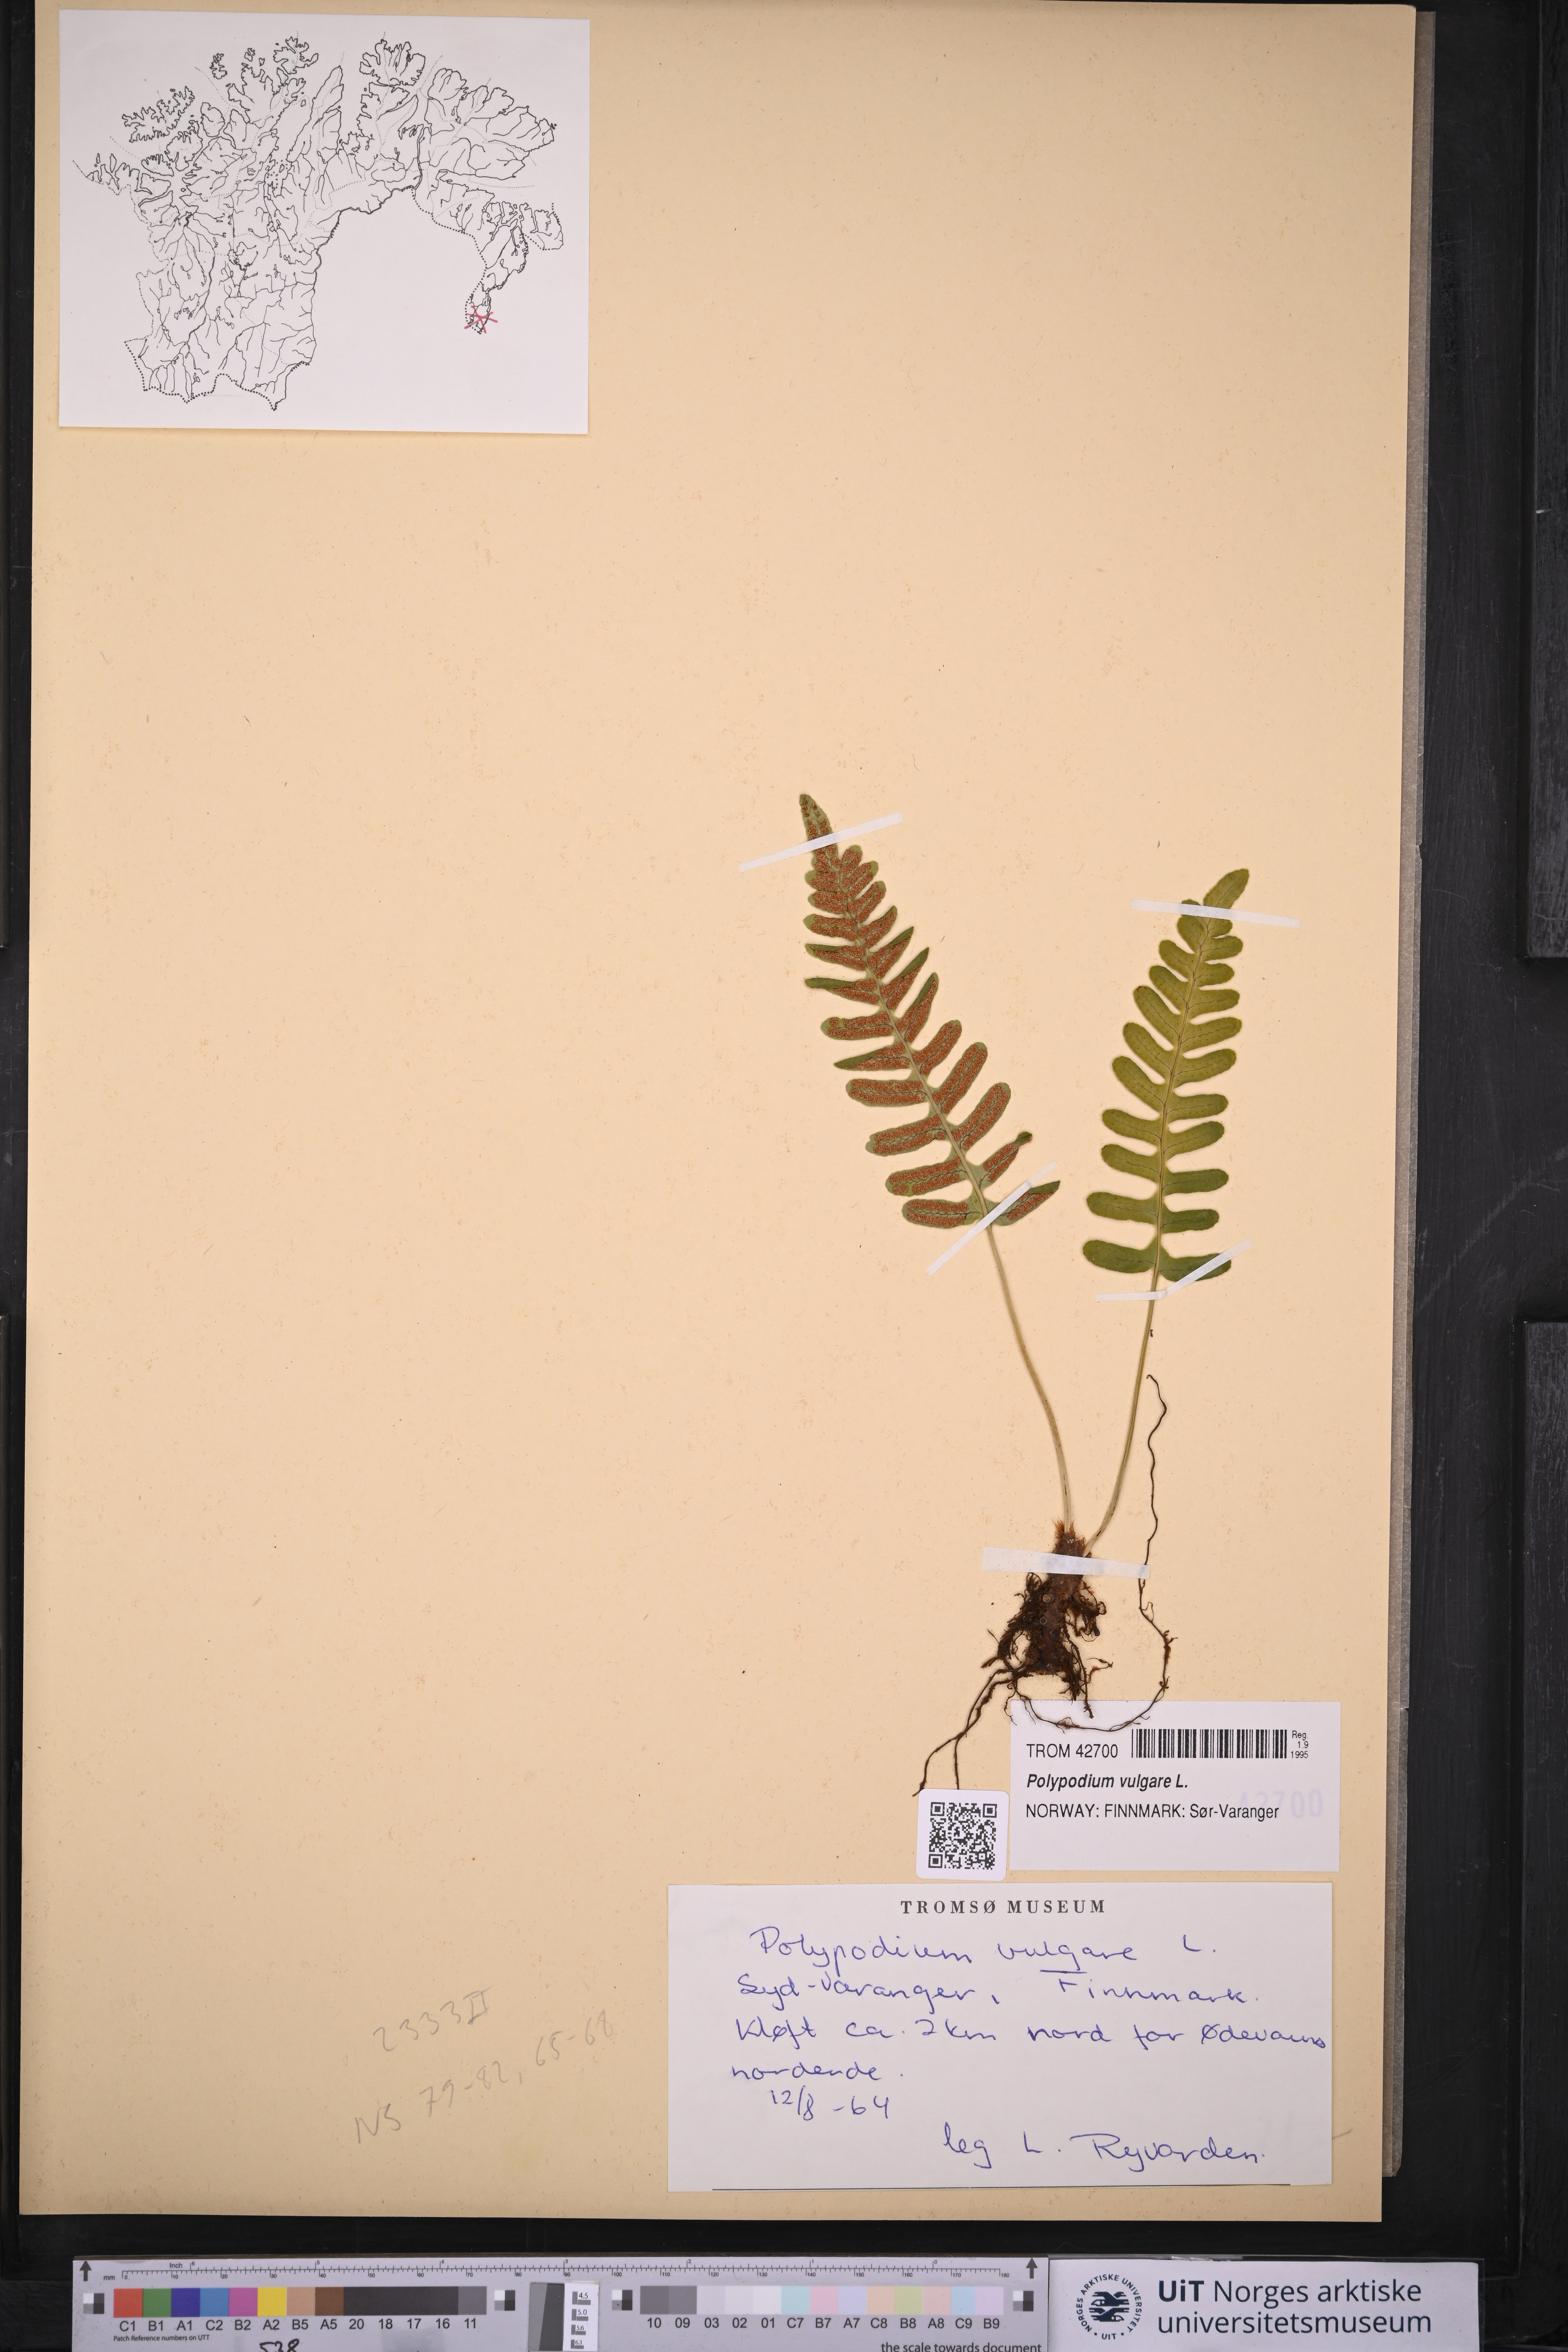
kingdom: Plantae
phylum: Tracheophyta
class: Polypodiopsida
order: Polypodiales
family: Polypodiaceae
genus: Polypodium
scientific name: Polypodium vulgare
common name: Common polypody
